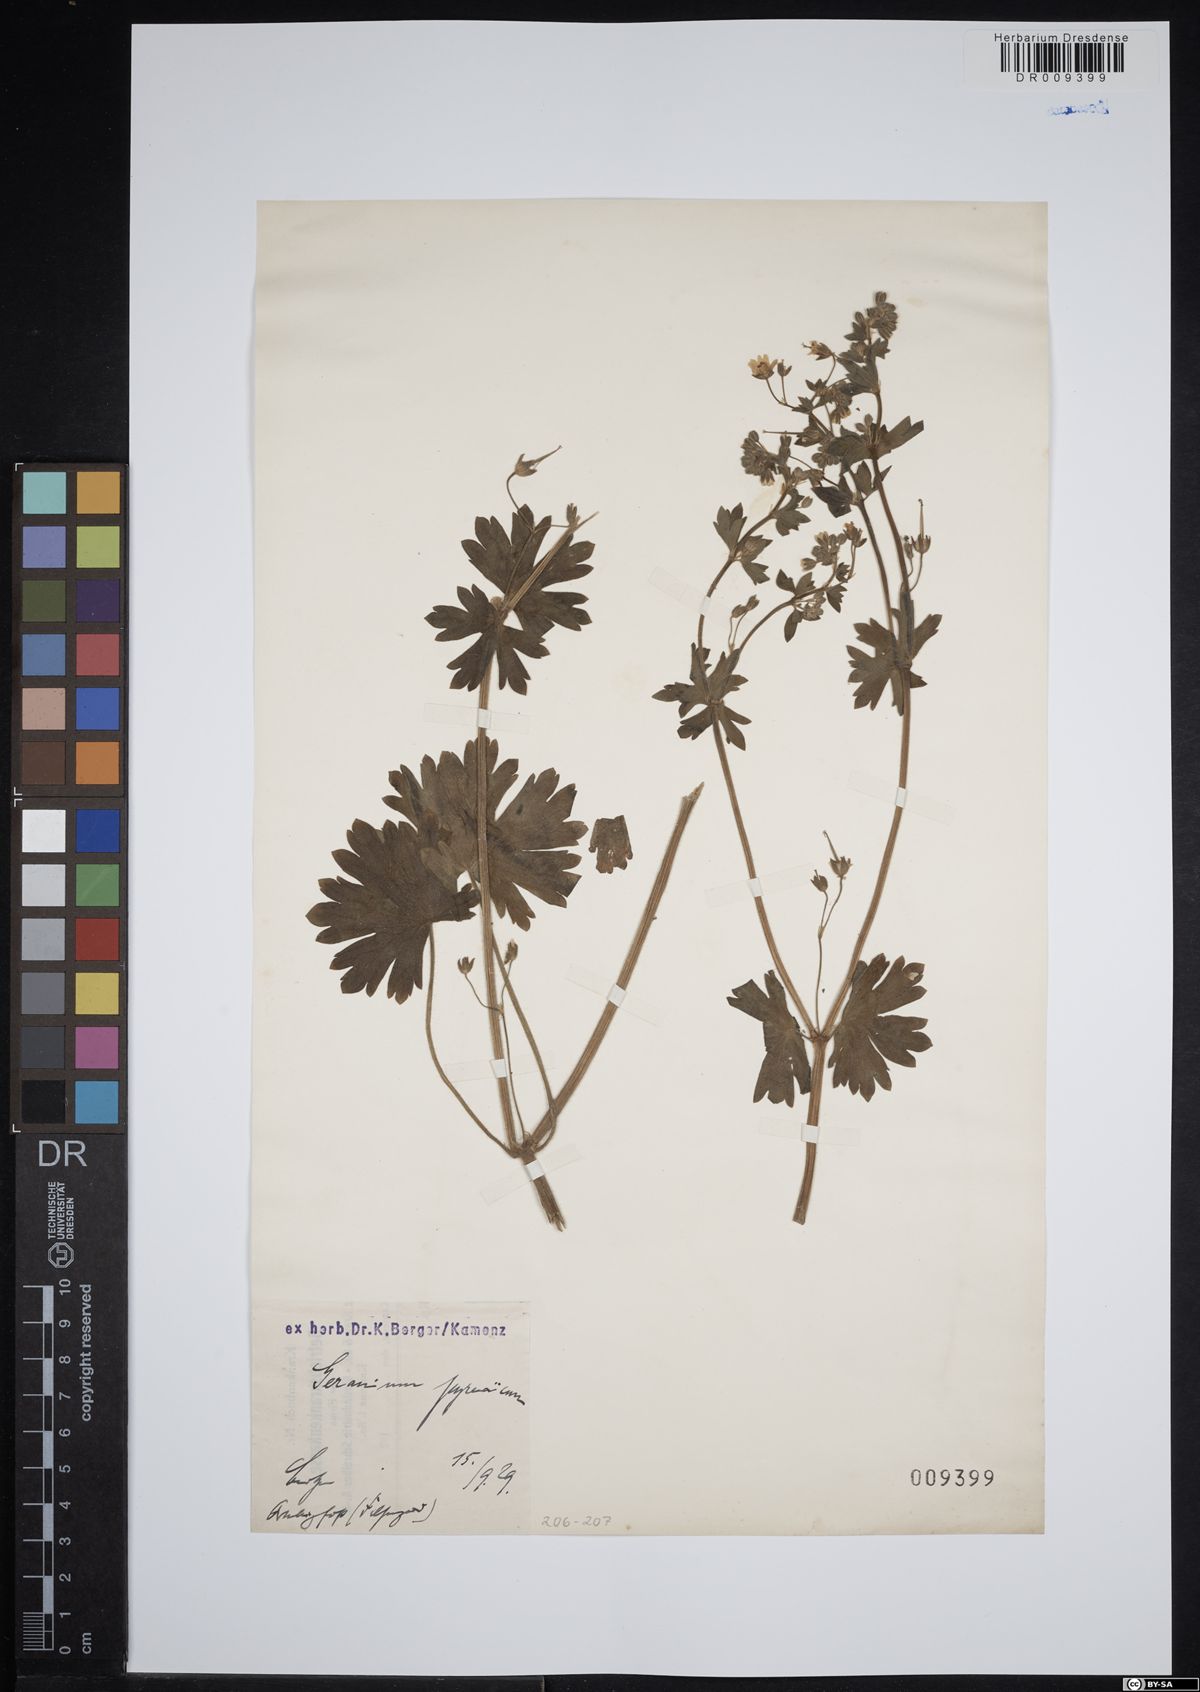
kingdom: Plantae
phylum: Tracheophyta
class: Magnoliopsida
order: Geraniales
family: Geraniaceae
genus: Geranium
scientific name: Geranium pyrenaicum
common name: Hedgerow crane's-bill
